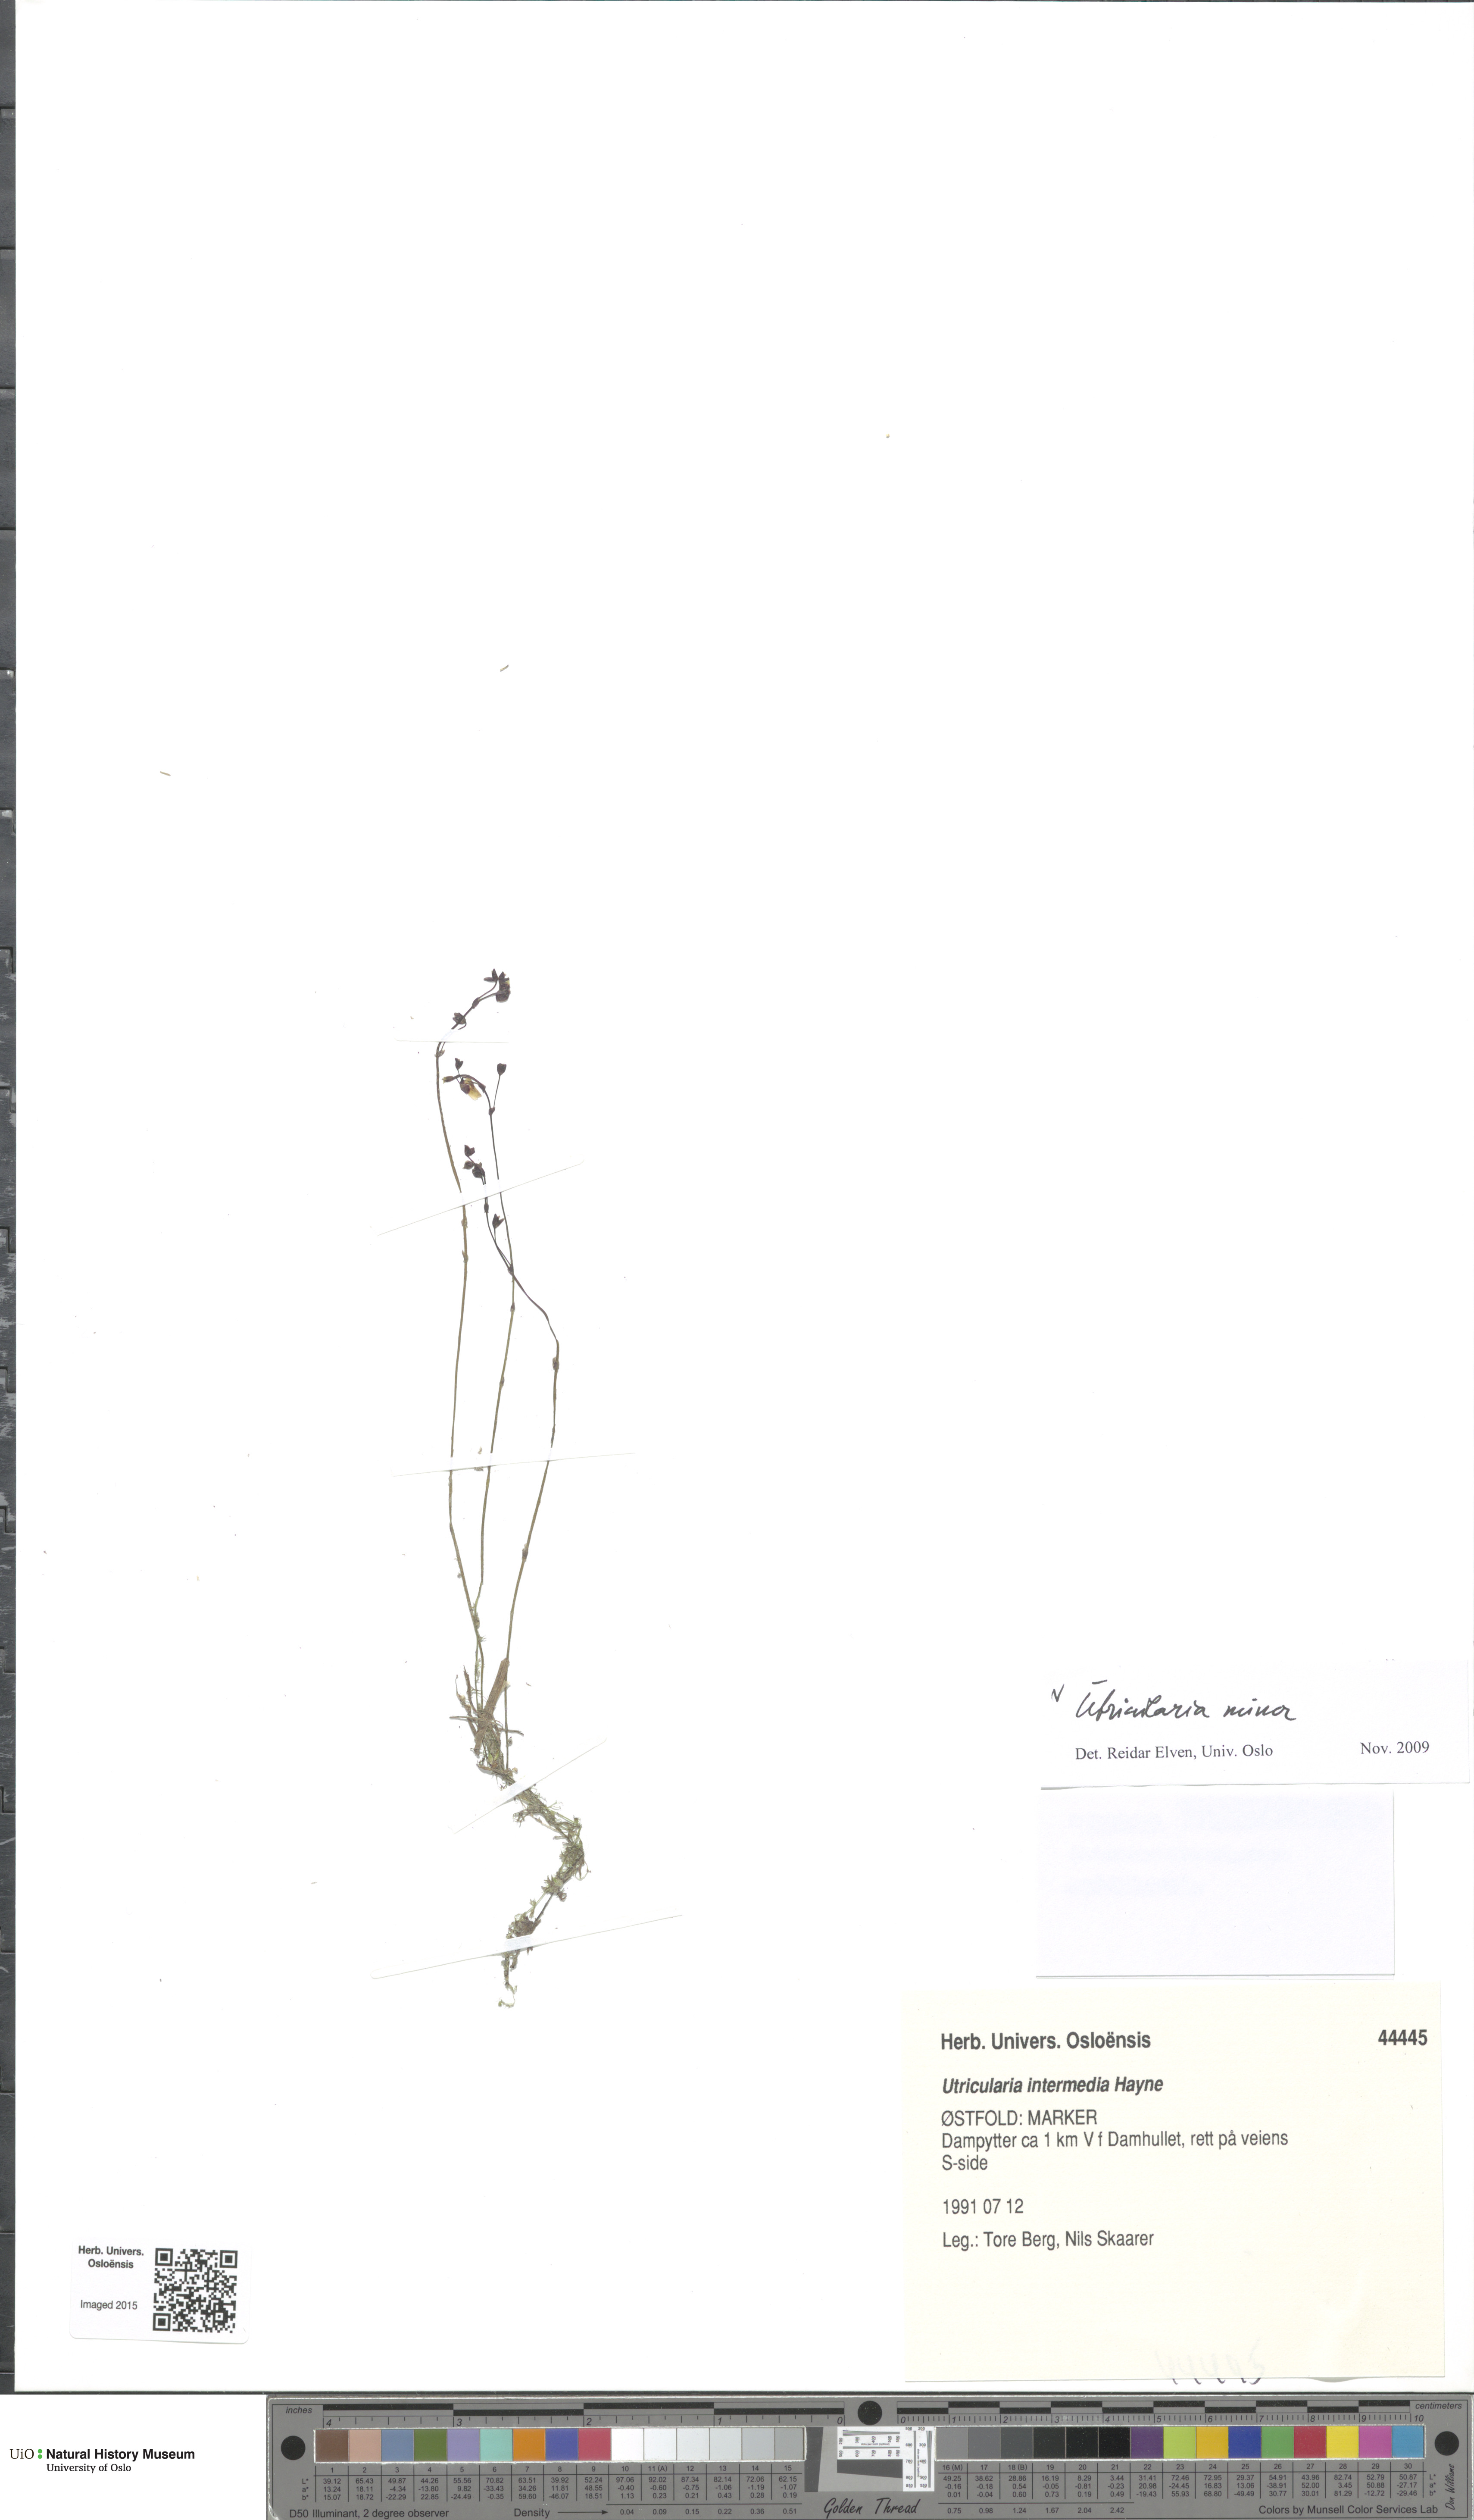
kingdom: Plantae
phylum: Tracheophyta
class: Magnoliopsida
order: Lamiales
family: Lentibulariaceae
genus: Utricularia
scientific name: Utricularia minor
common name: Lesser bladderwort
